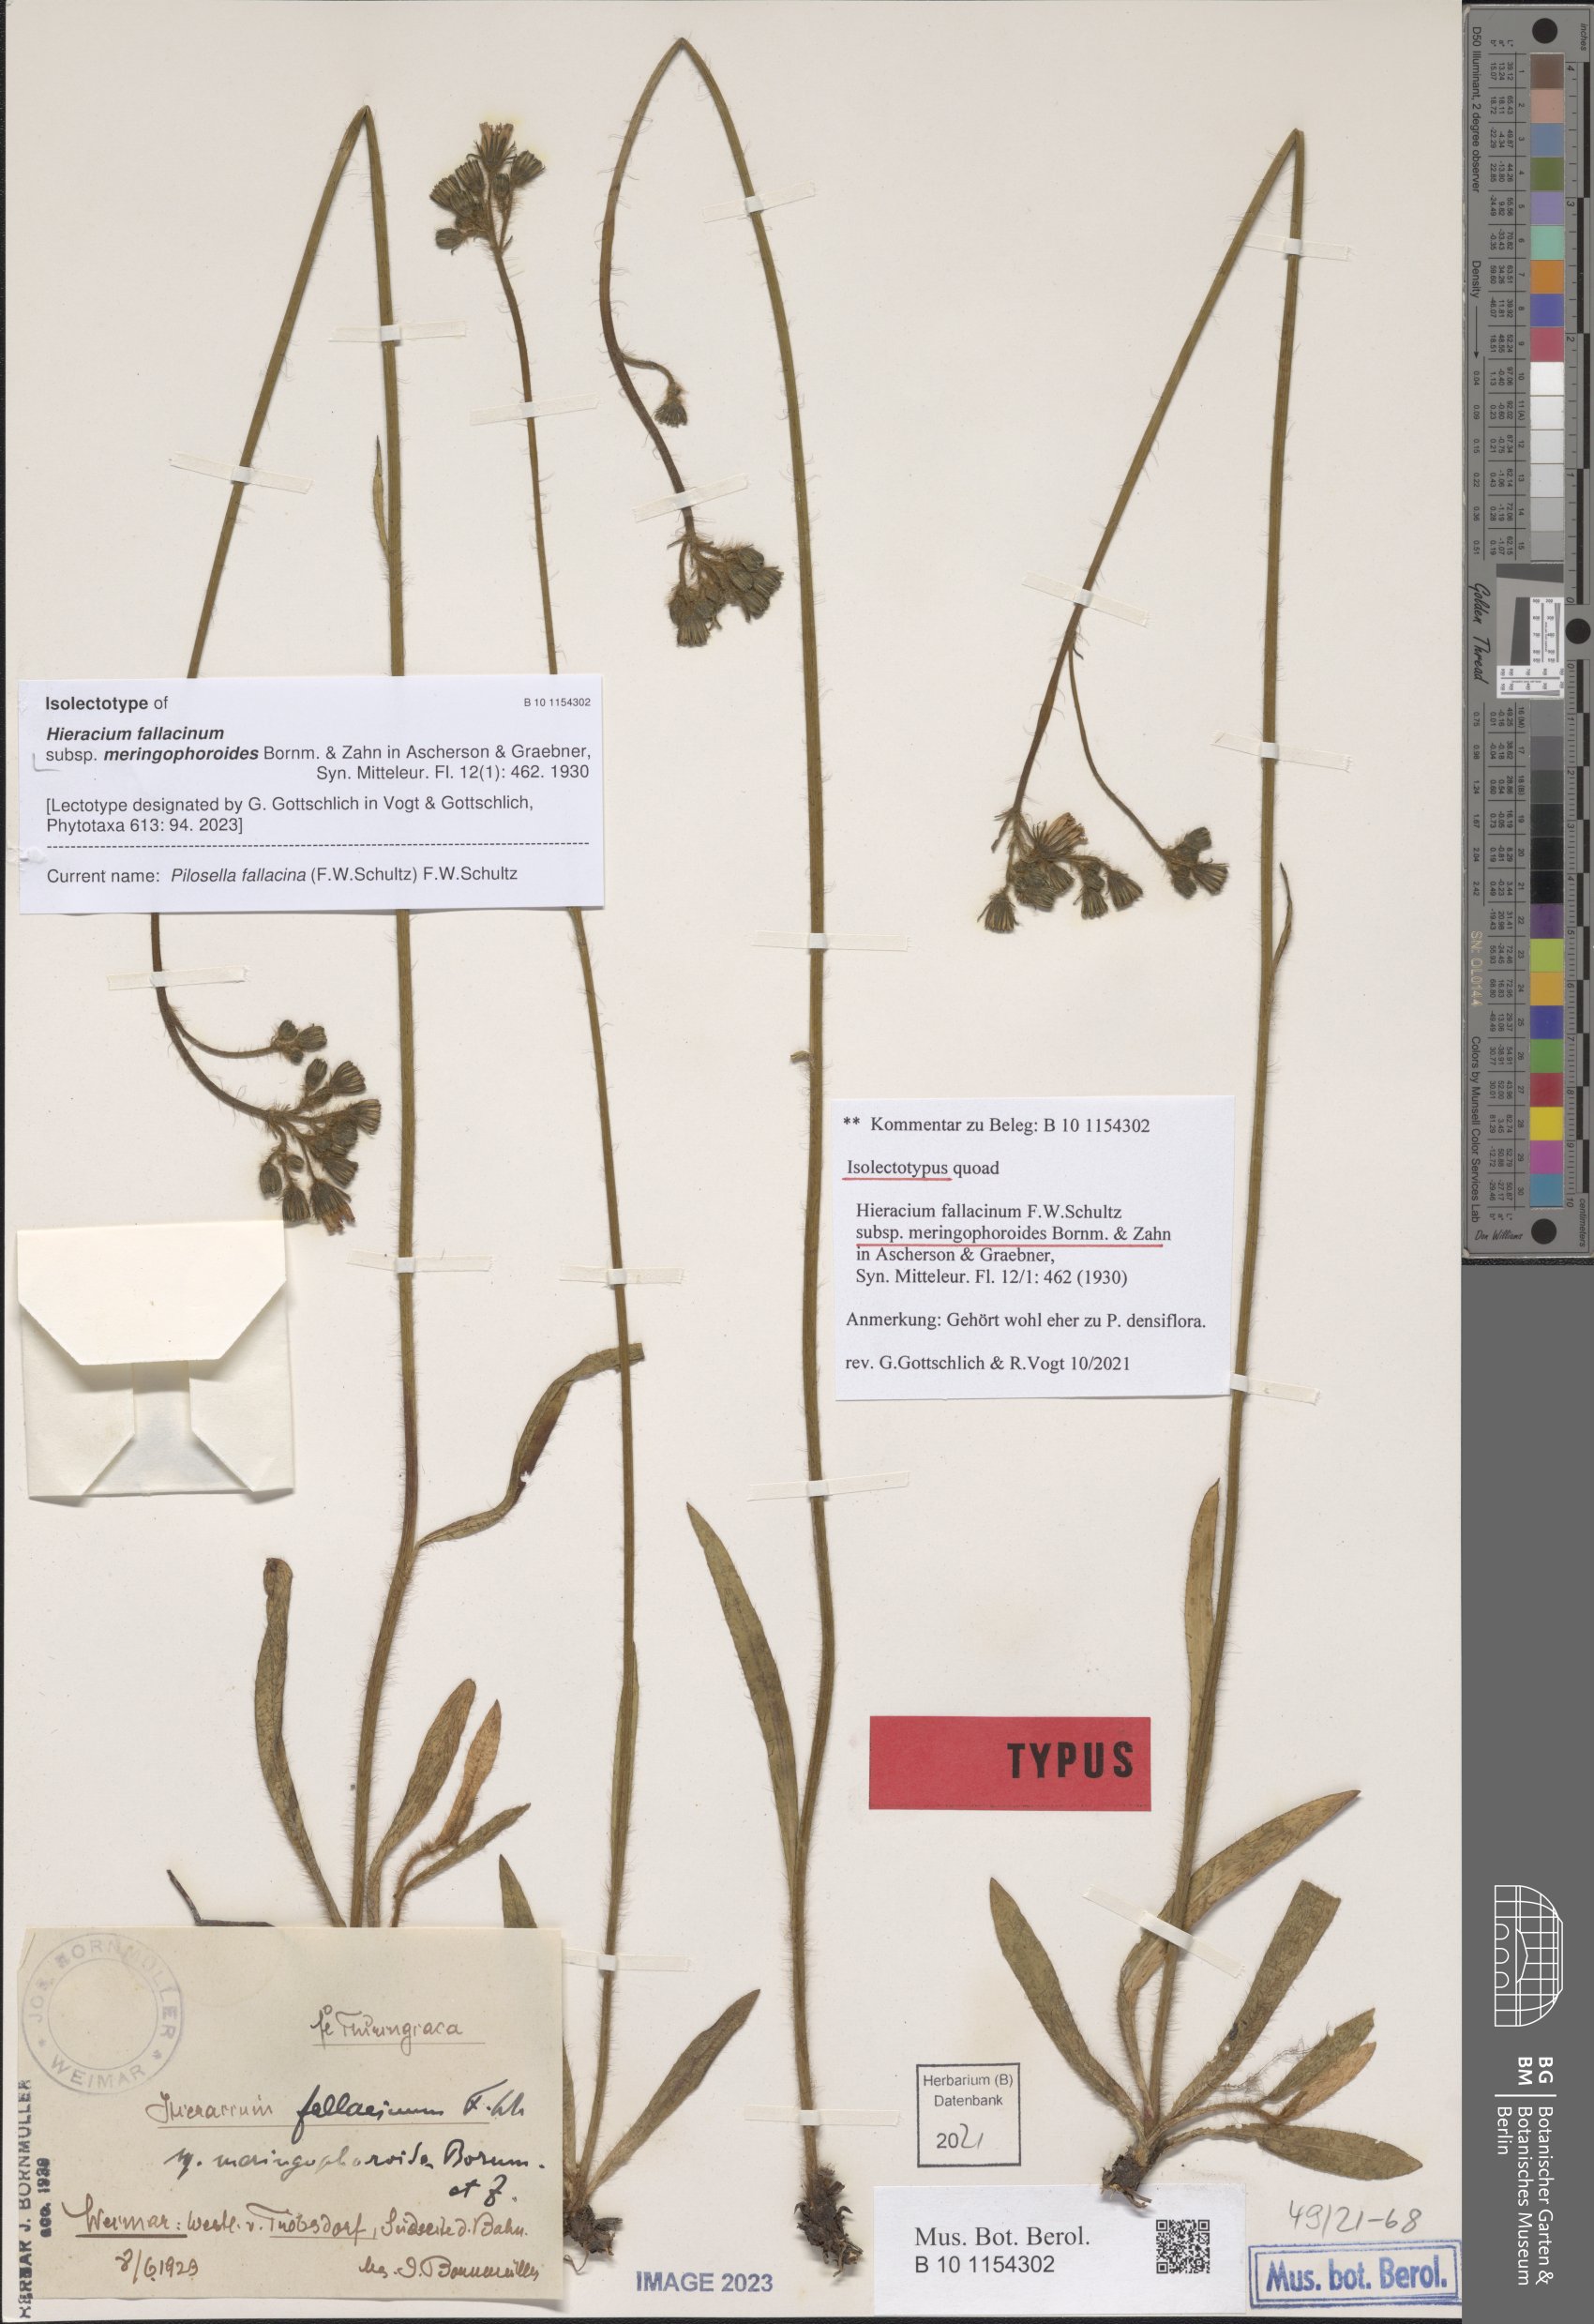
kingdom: Plantae
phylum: Tracheophyta
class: Magnoliopsida
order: Asterales
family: Asteraceae
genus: Pilosella
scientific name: Pilosella fallacina
